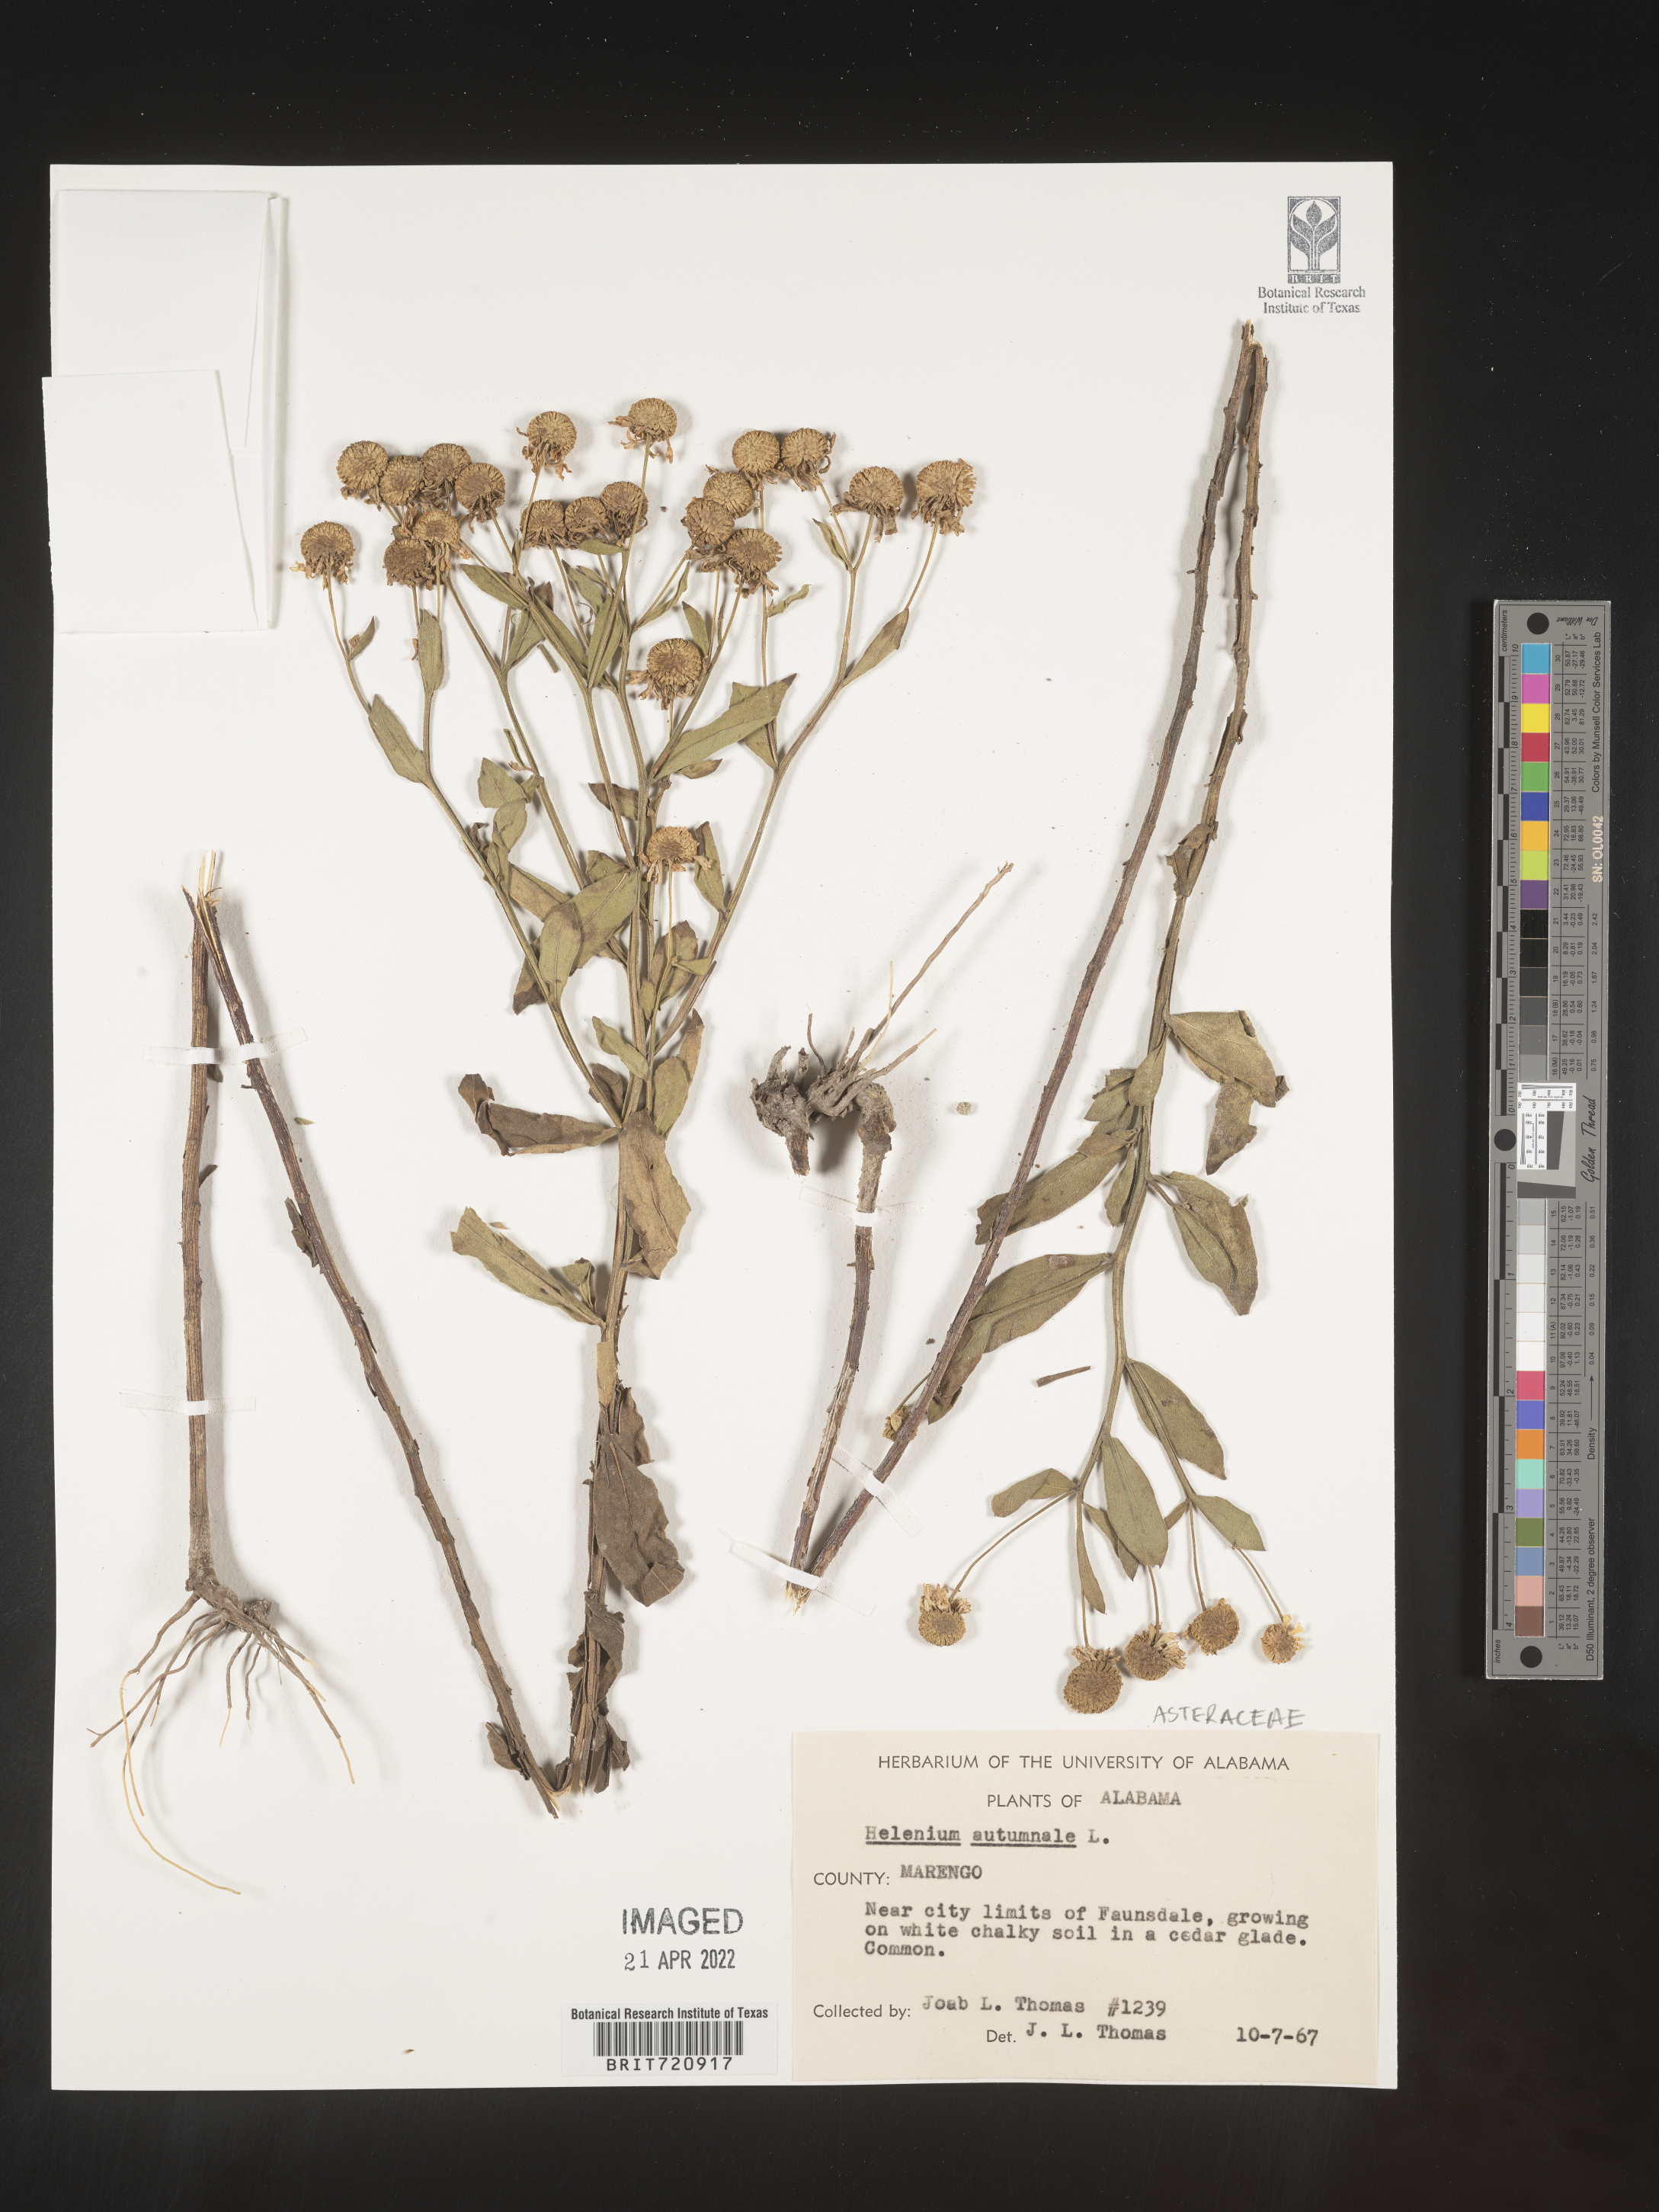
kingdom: Plantae
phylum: Tracheophyta
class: Magnoliopsida
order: Asterales
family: Asteraceae
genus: Helenium
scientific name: Helenium autumnale
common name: Sneezeweed
